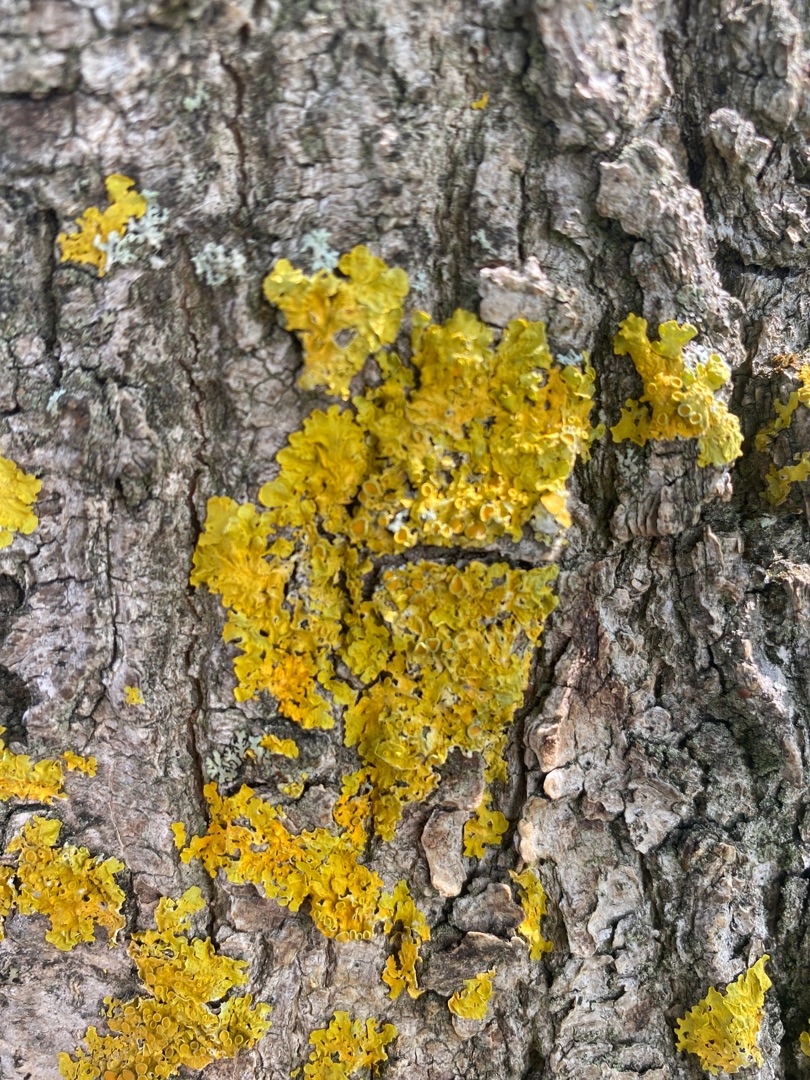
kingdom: Fungi
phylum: Ascomycota
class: Lecanoromycetes
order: Teloschistales
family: Teloschistaceae
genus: Xanthoria
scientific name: Xanthoria parietina
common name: Almindelig væggelav
